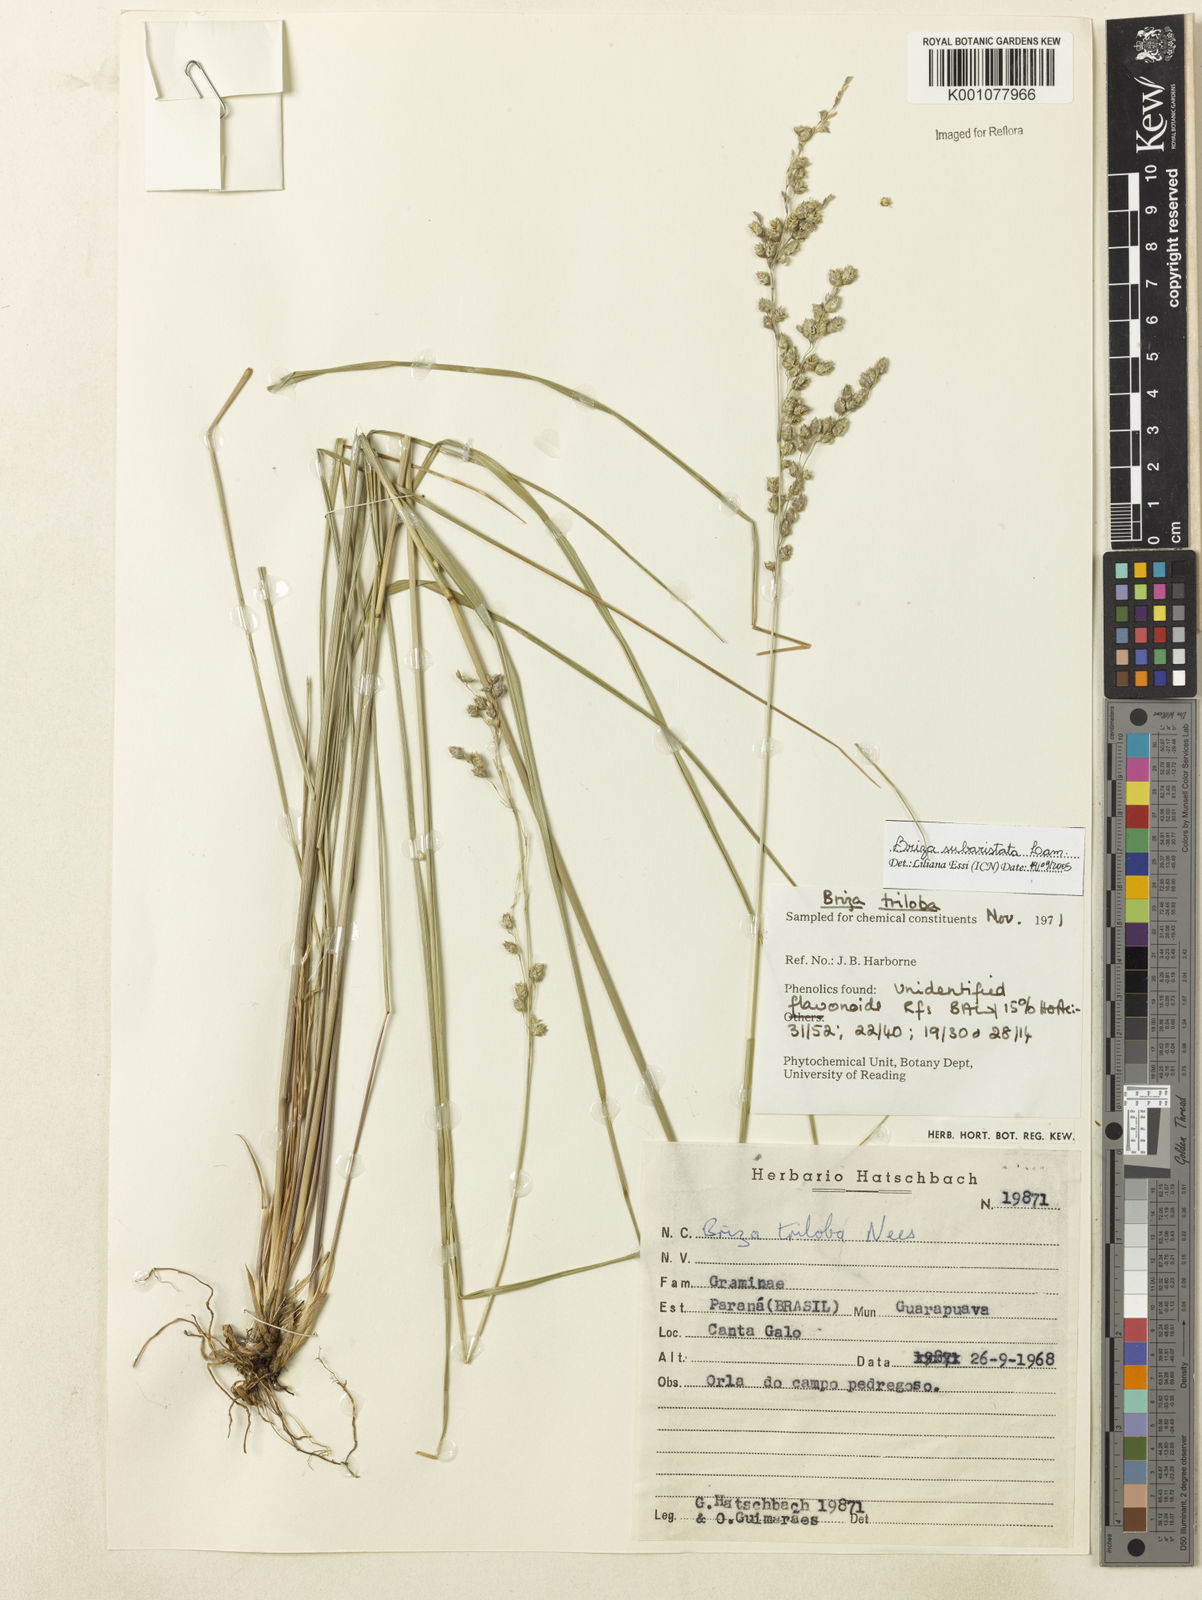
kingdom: Plantae
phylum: Tracheophyta
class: Liliopsida
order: Poales
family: Poaceae
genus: Briza
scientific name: Briza
